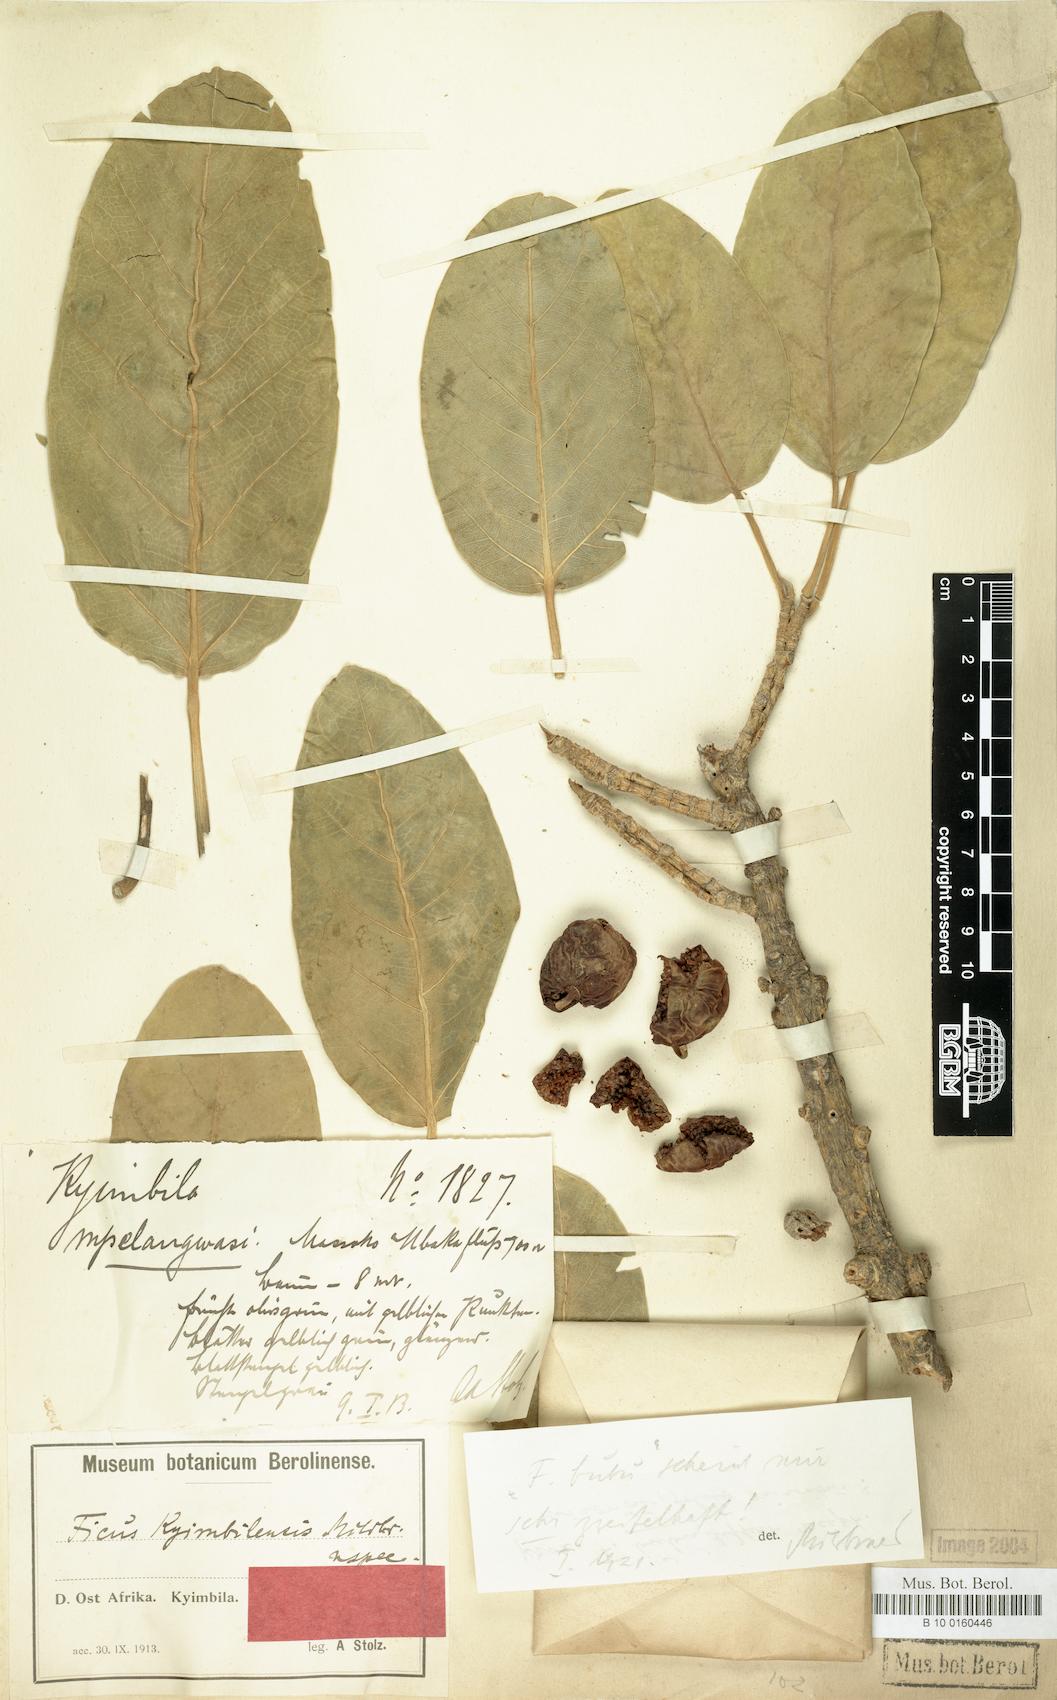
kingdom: Plantae
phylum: Tracheophyta
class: Magnoliopsida
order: Rosales
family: Moraceae
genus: Ficus
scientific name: Ficus bubu
